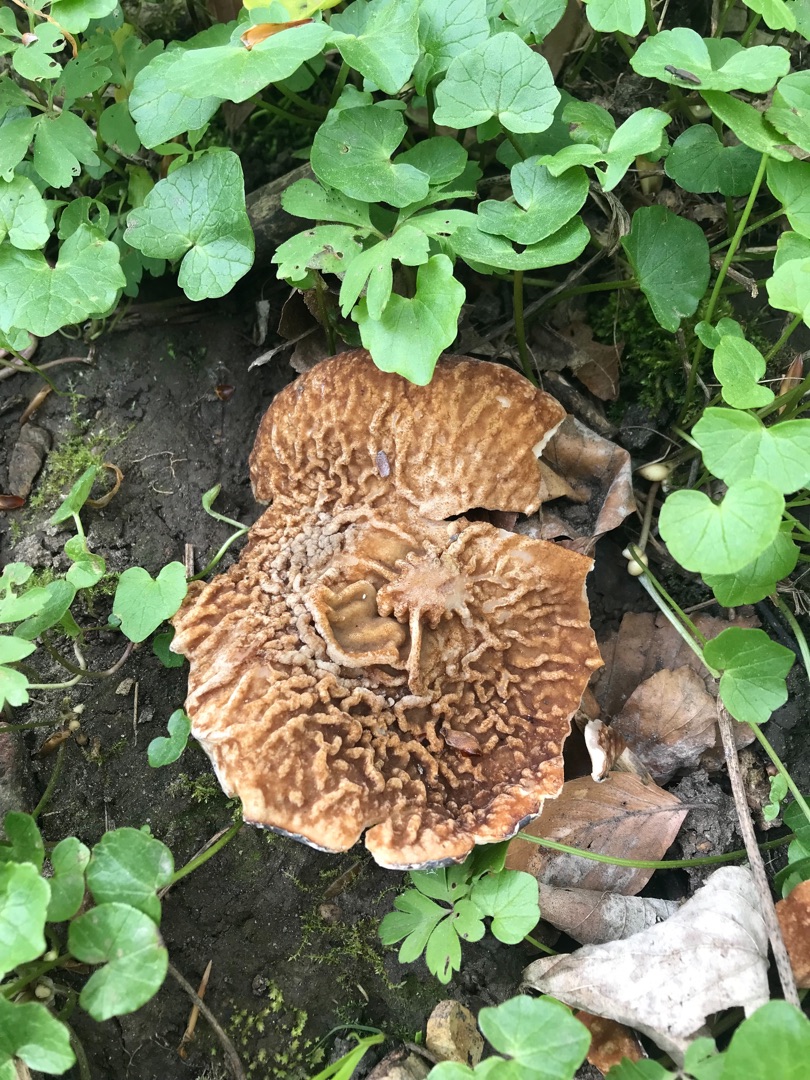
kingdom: Fungi
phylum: Ascomycota
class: Pezizomycetes
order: Pezizales
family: Morchellaceae
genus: Disciotis
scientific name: Disciotis venosa
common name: Klor-bægermorkel
